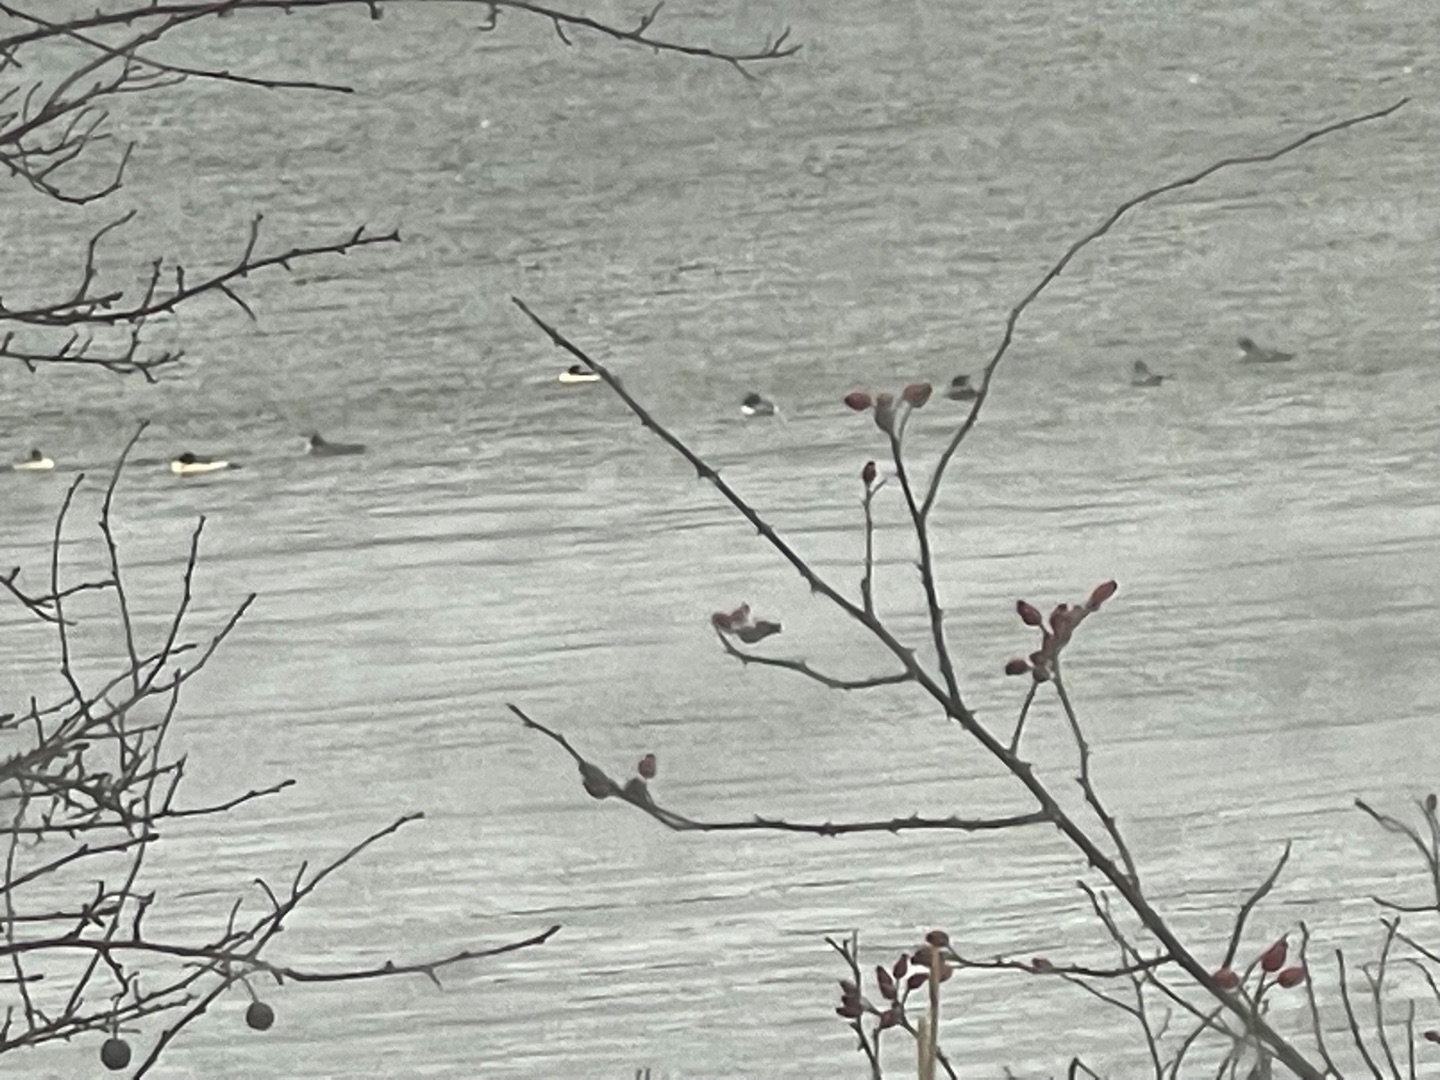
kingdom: Animalia
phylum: Chordata
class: Aves
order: Anseriformes
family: Anatidae
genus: Mergus
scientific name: Mergus merganser
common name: Stor skallesluger
